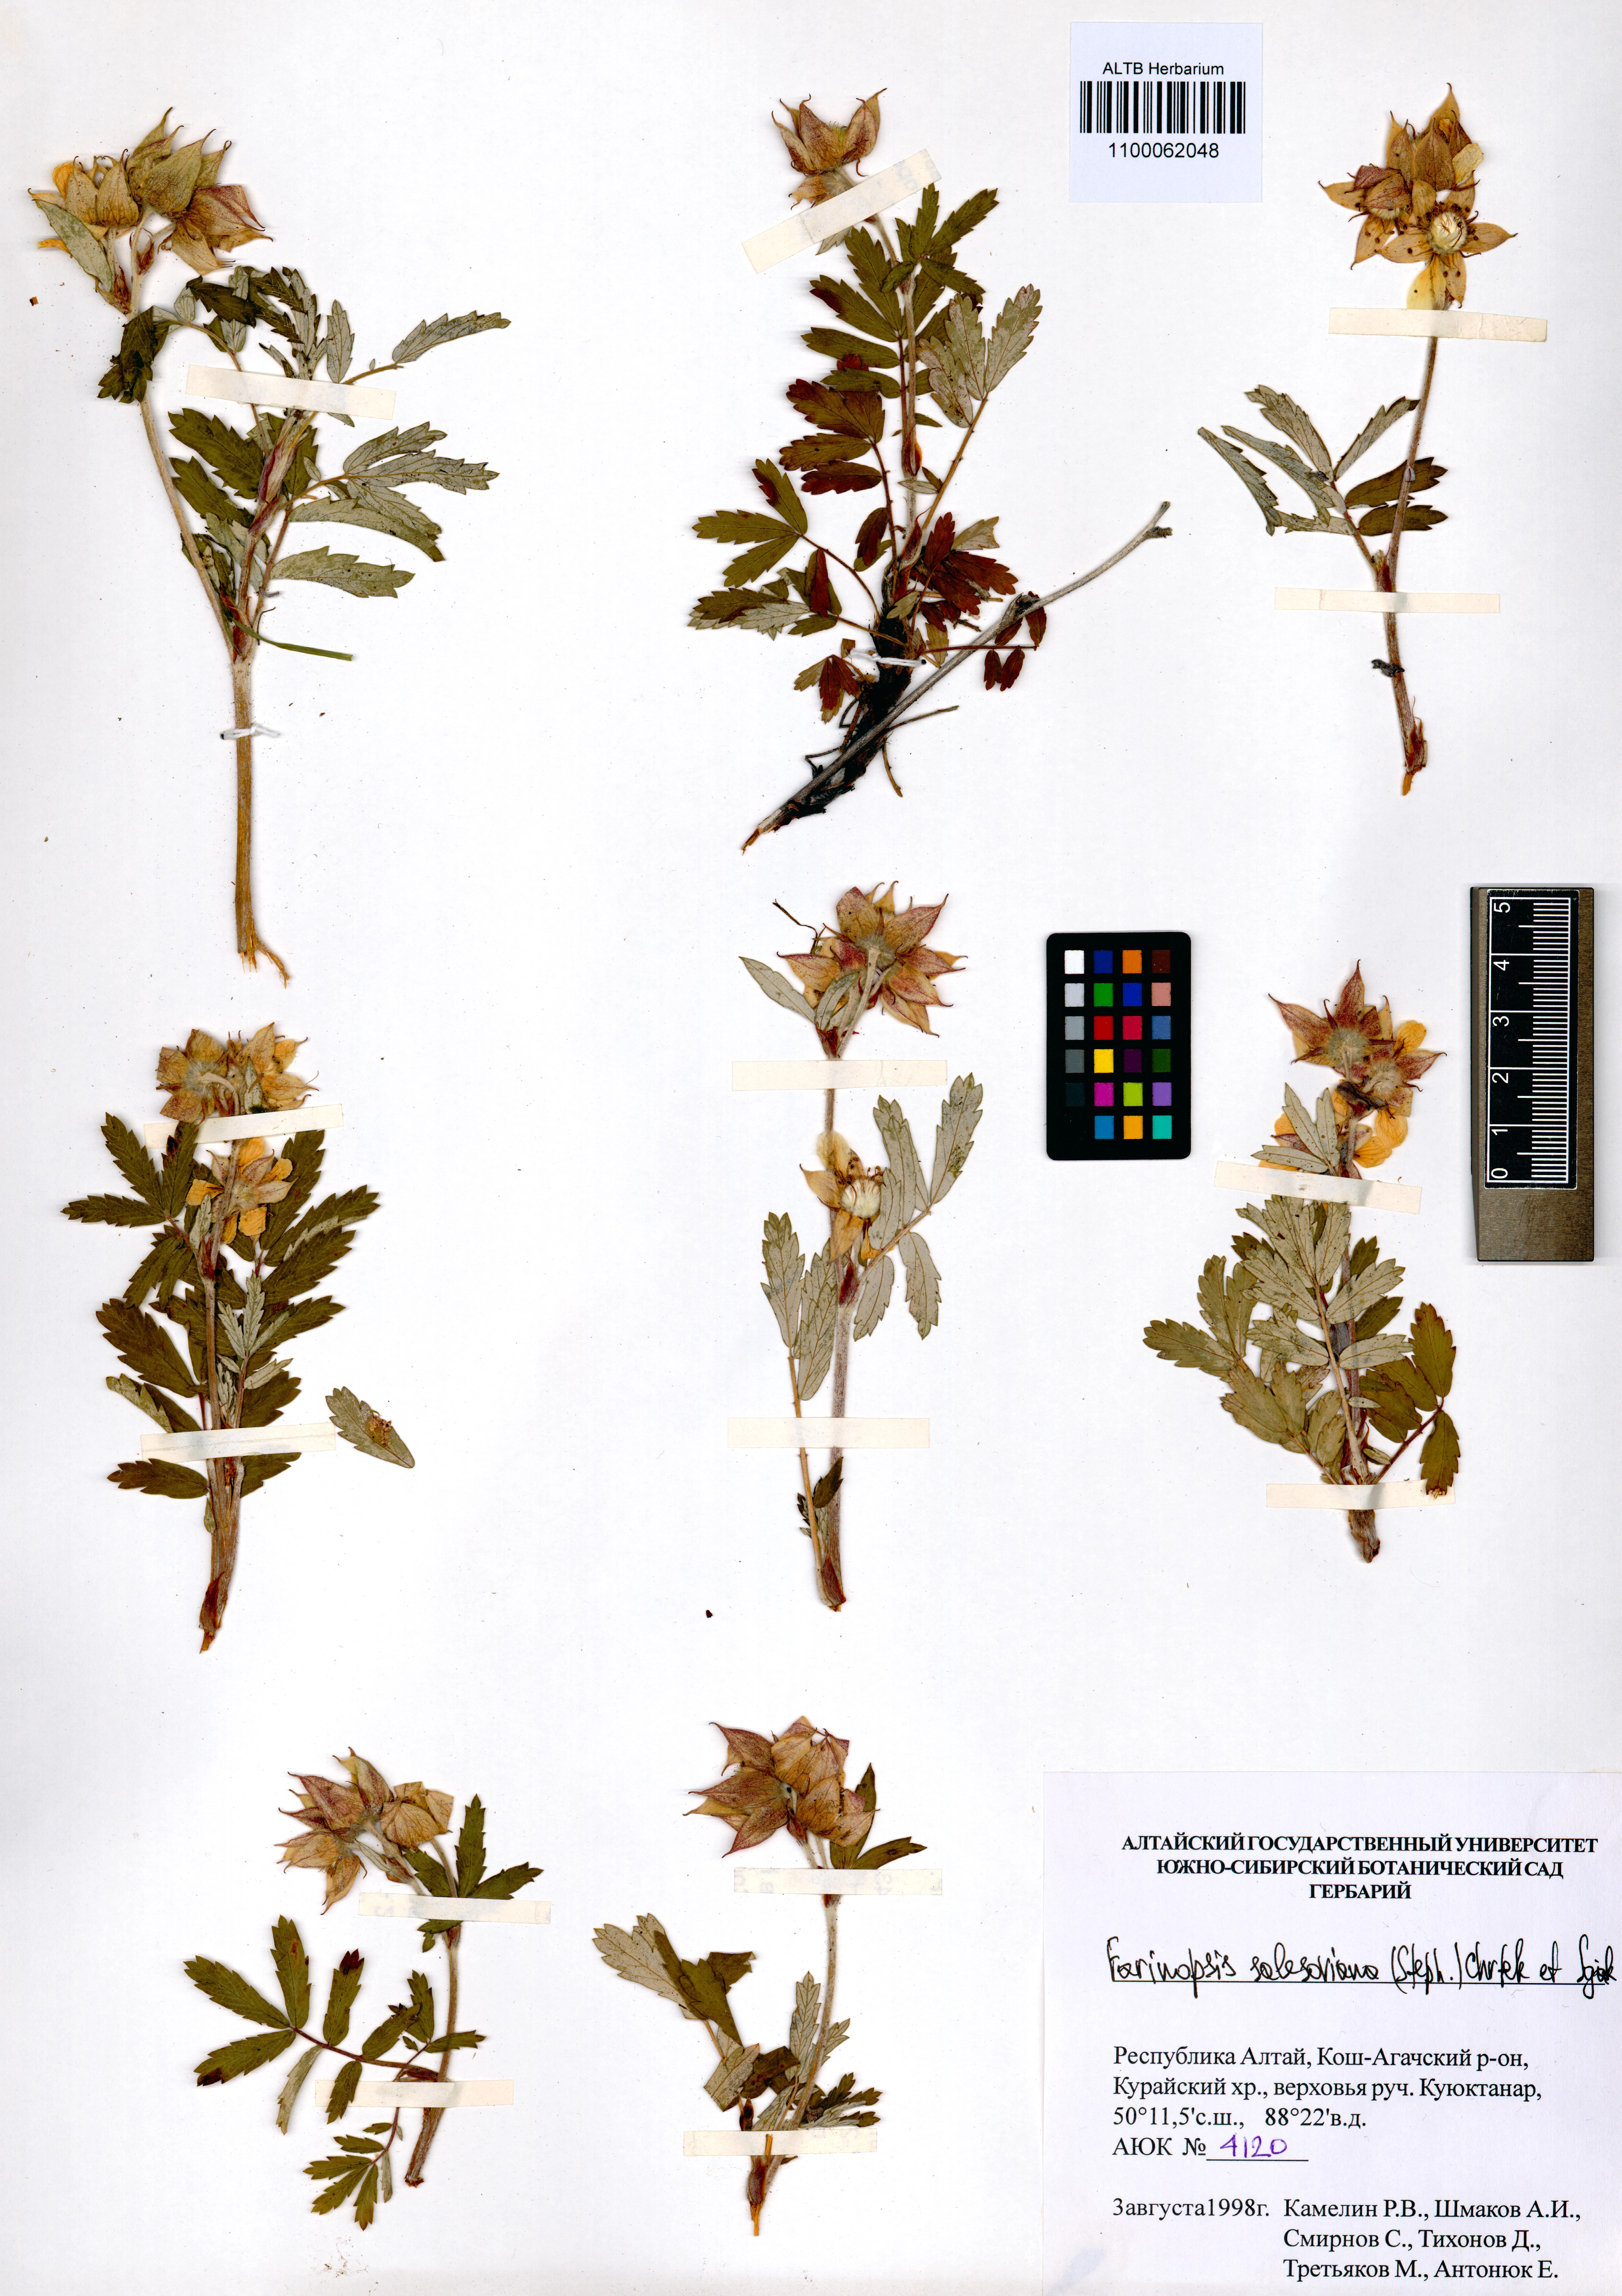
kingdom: Plantae
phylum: Tracheophyta
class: Magnoliopsida
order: Rosales
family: Rosaceae
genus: Farinopsis
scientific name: Farinopsis salesoviana
